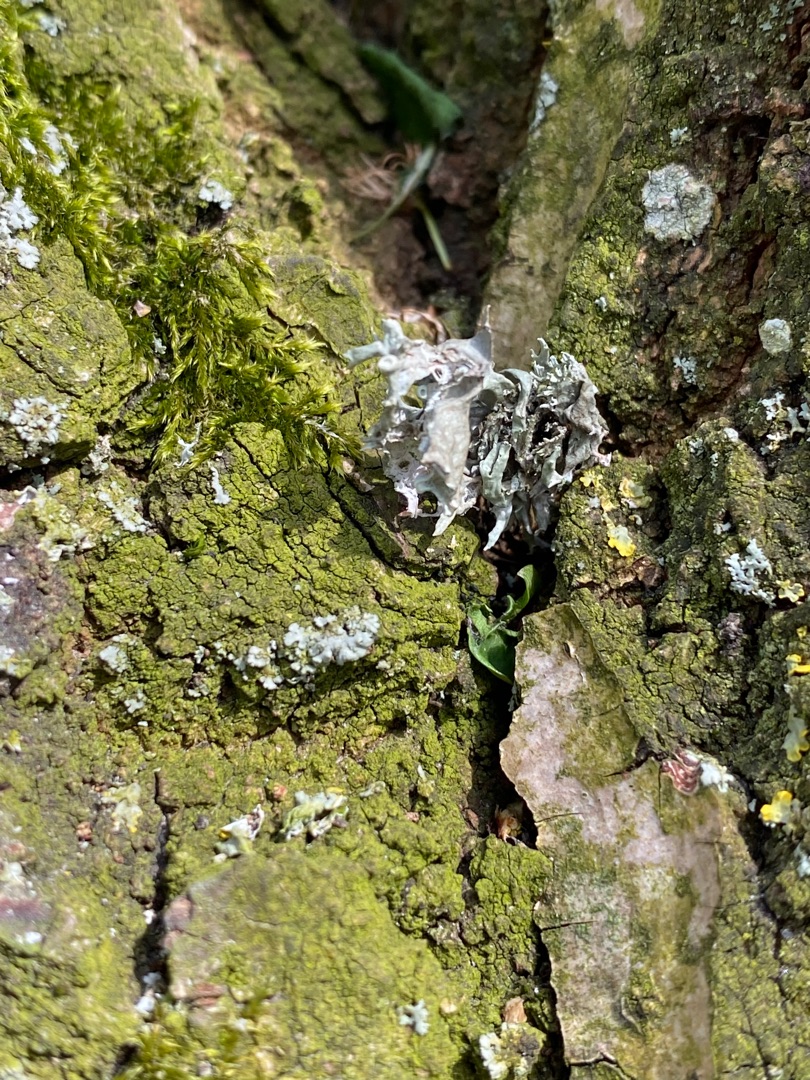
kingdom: Fungi
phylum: Ascomycota
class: Lecanoromycetes
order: Lecanorales
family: Ramalinaceae
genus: Ramalina
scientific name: Ramalina farinacea
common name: Melet grenlav
